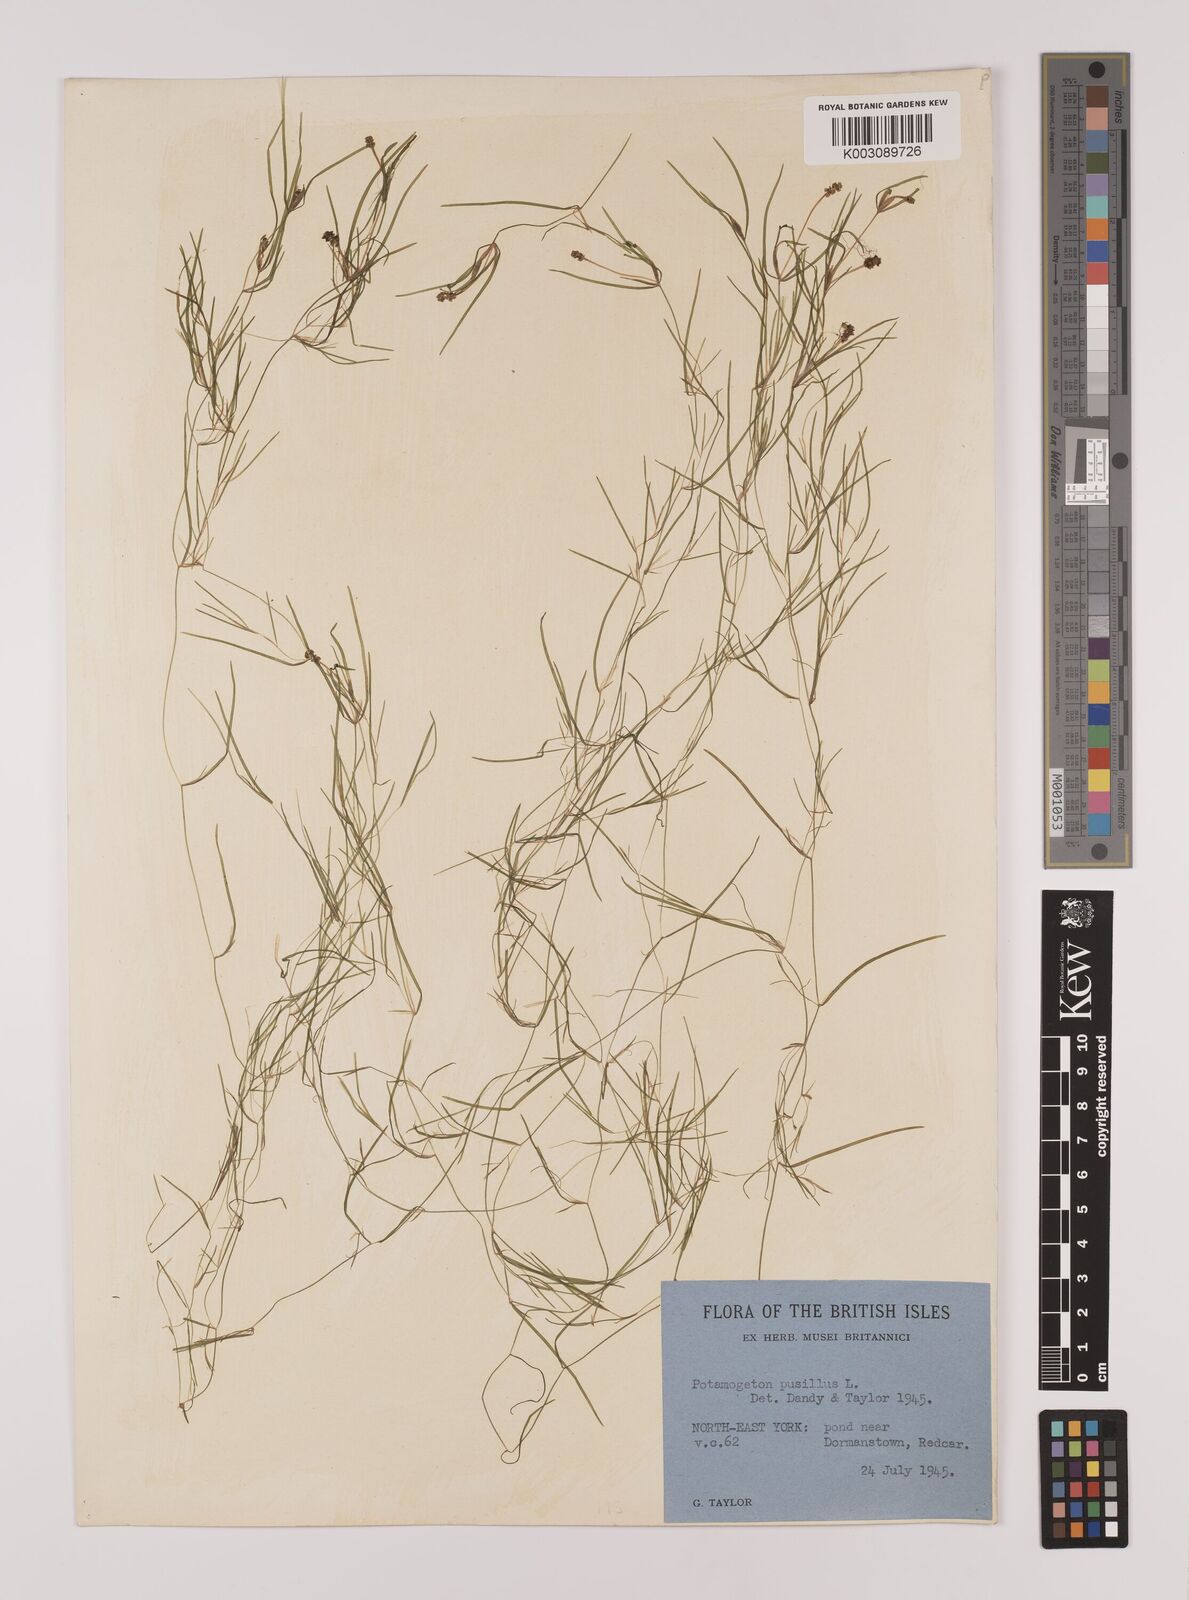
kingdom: Plantae
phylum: Tracheophyta
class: Liliopsida
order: Alismatales
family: Potamogetonaceae
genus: Stuckenia
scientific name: Stuckenia pectinata
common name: Sago pondweed
